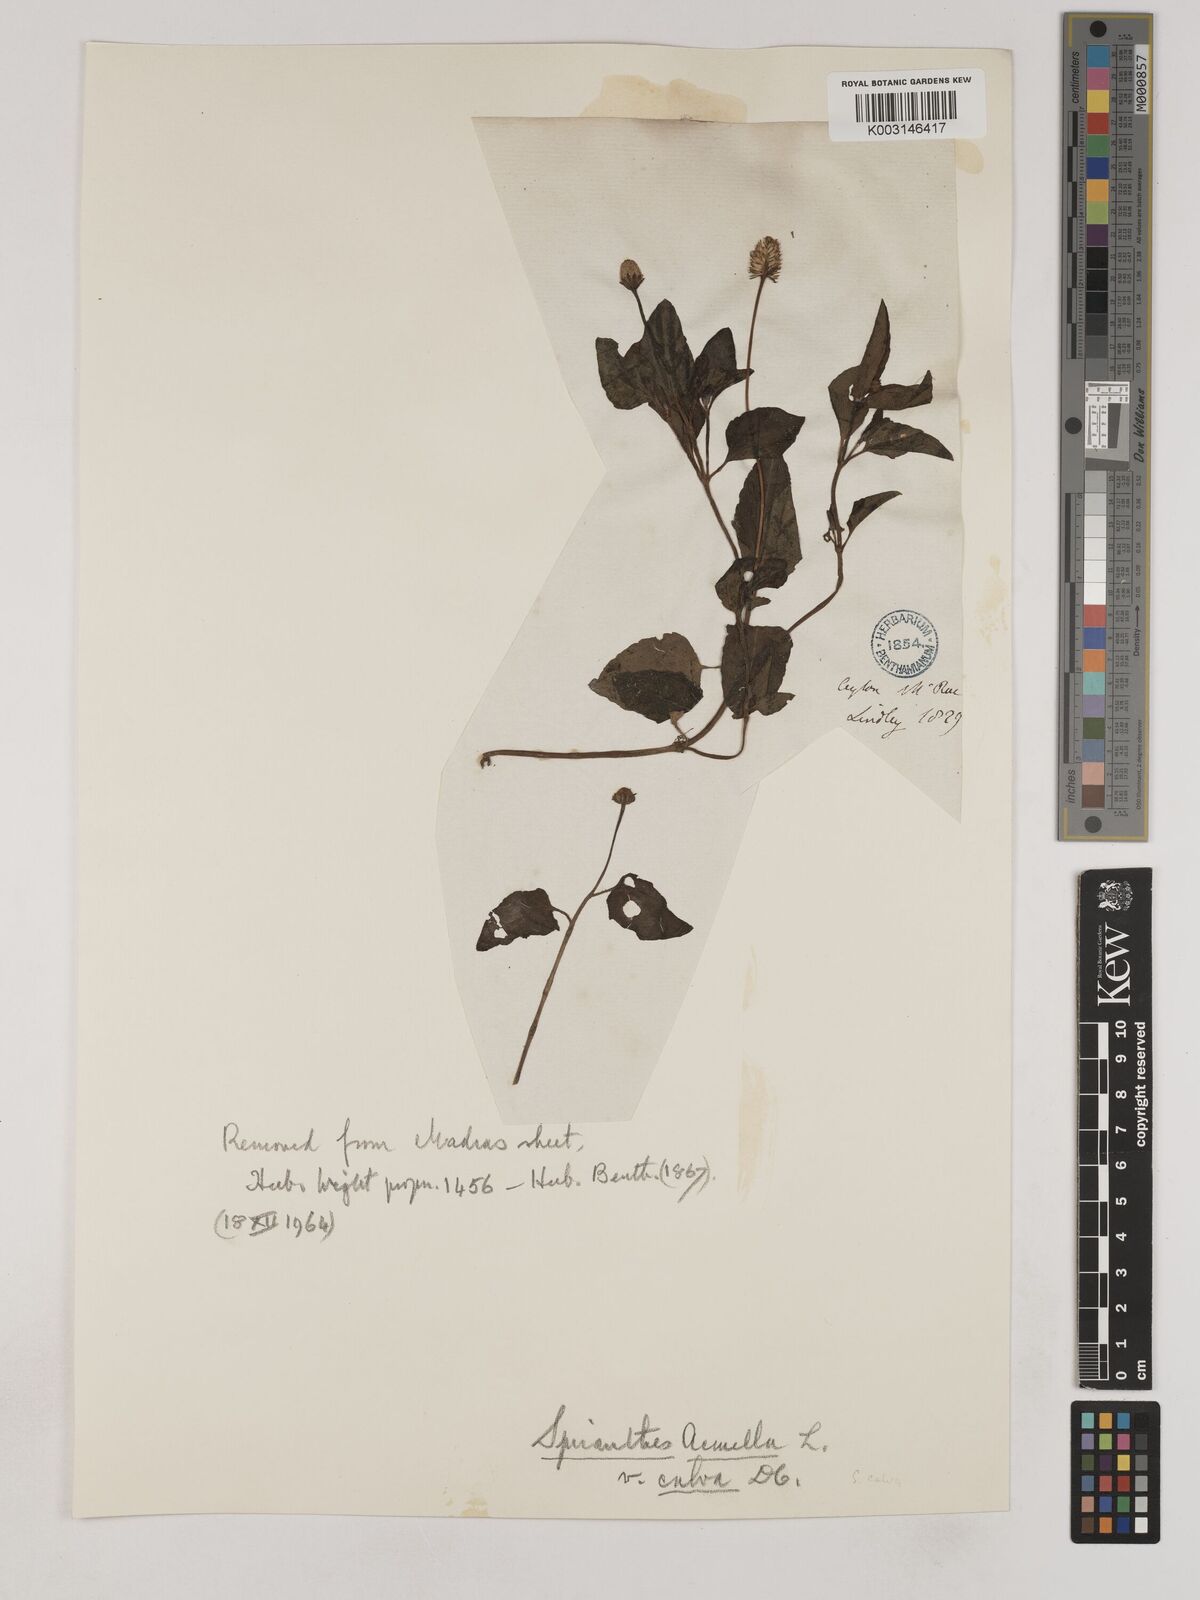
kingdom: Plantae
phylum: Tracheophyta
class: Magnoliopsida
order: Asterales
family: Asteraceae
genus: Acmella
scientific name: Acmella calva
